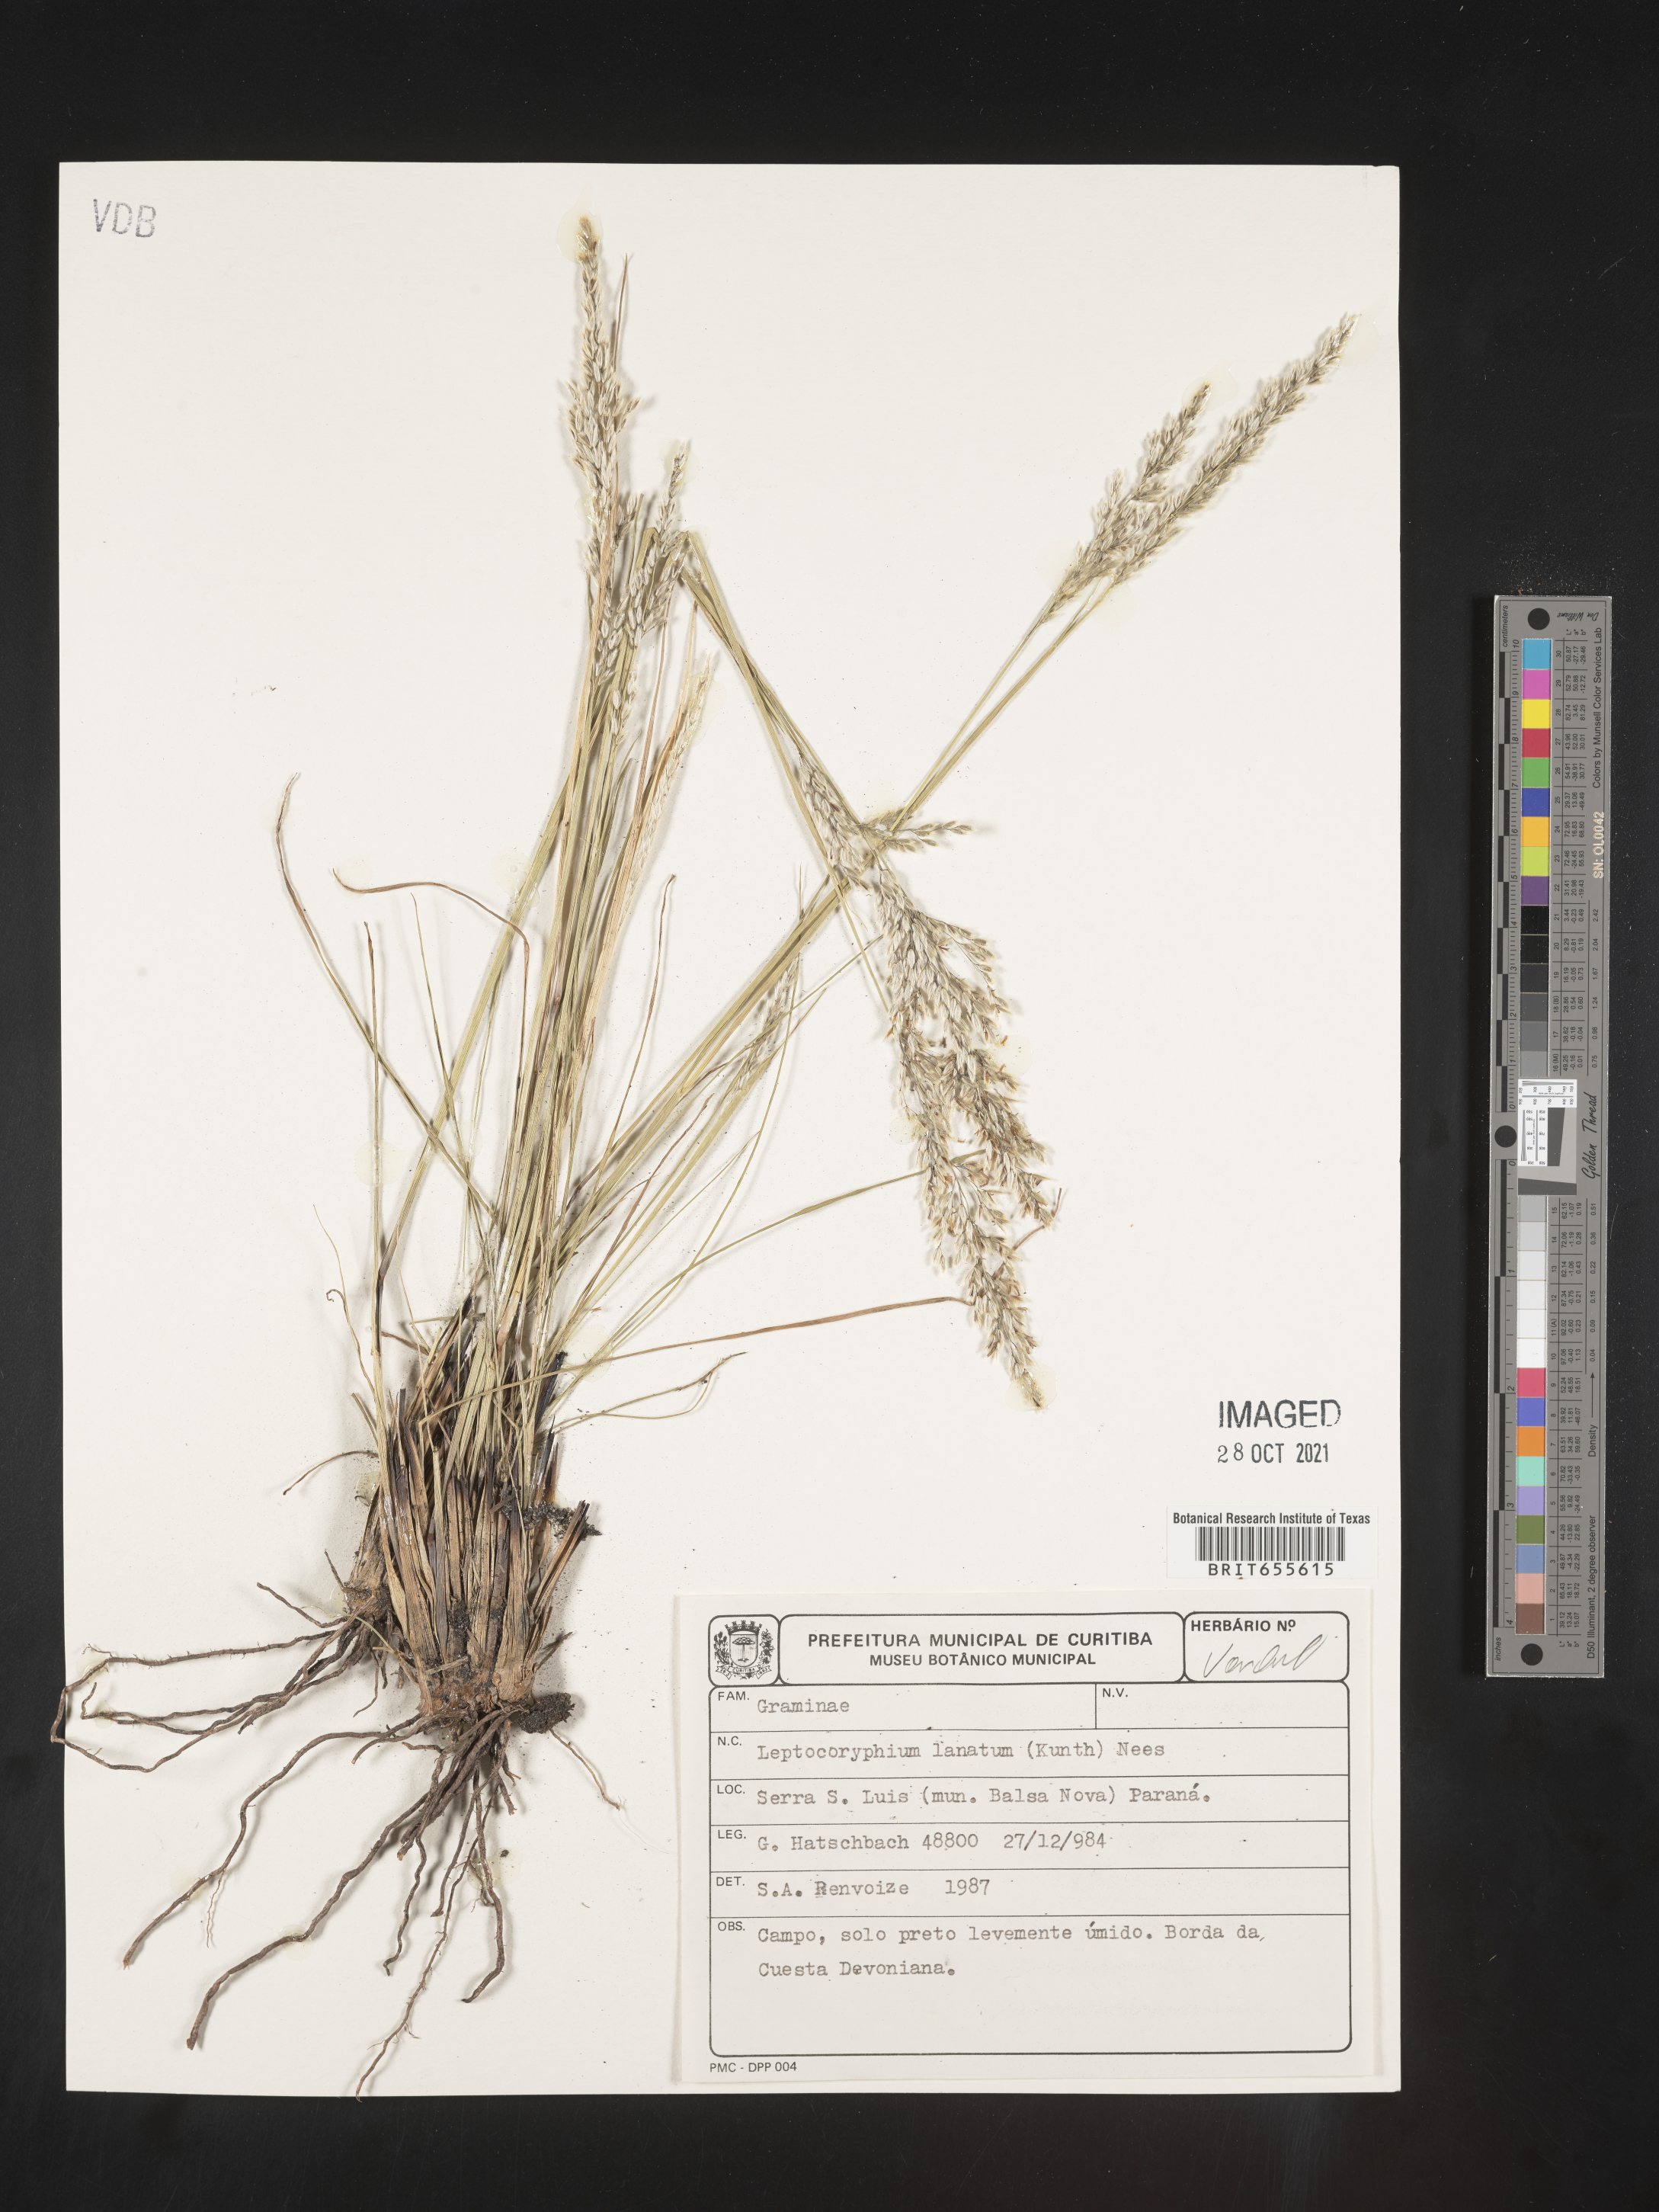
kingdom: Plantae
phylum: Tracheophyta
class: Liliopsida
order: Poales
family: Poaceae
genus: Anthenantia
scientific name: Anthenantia
